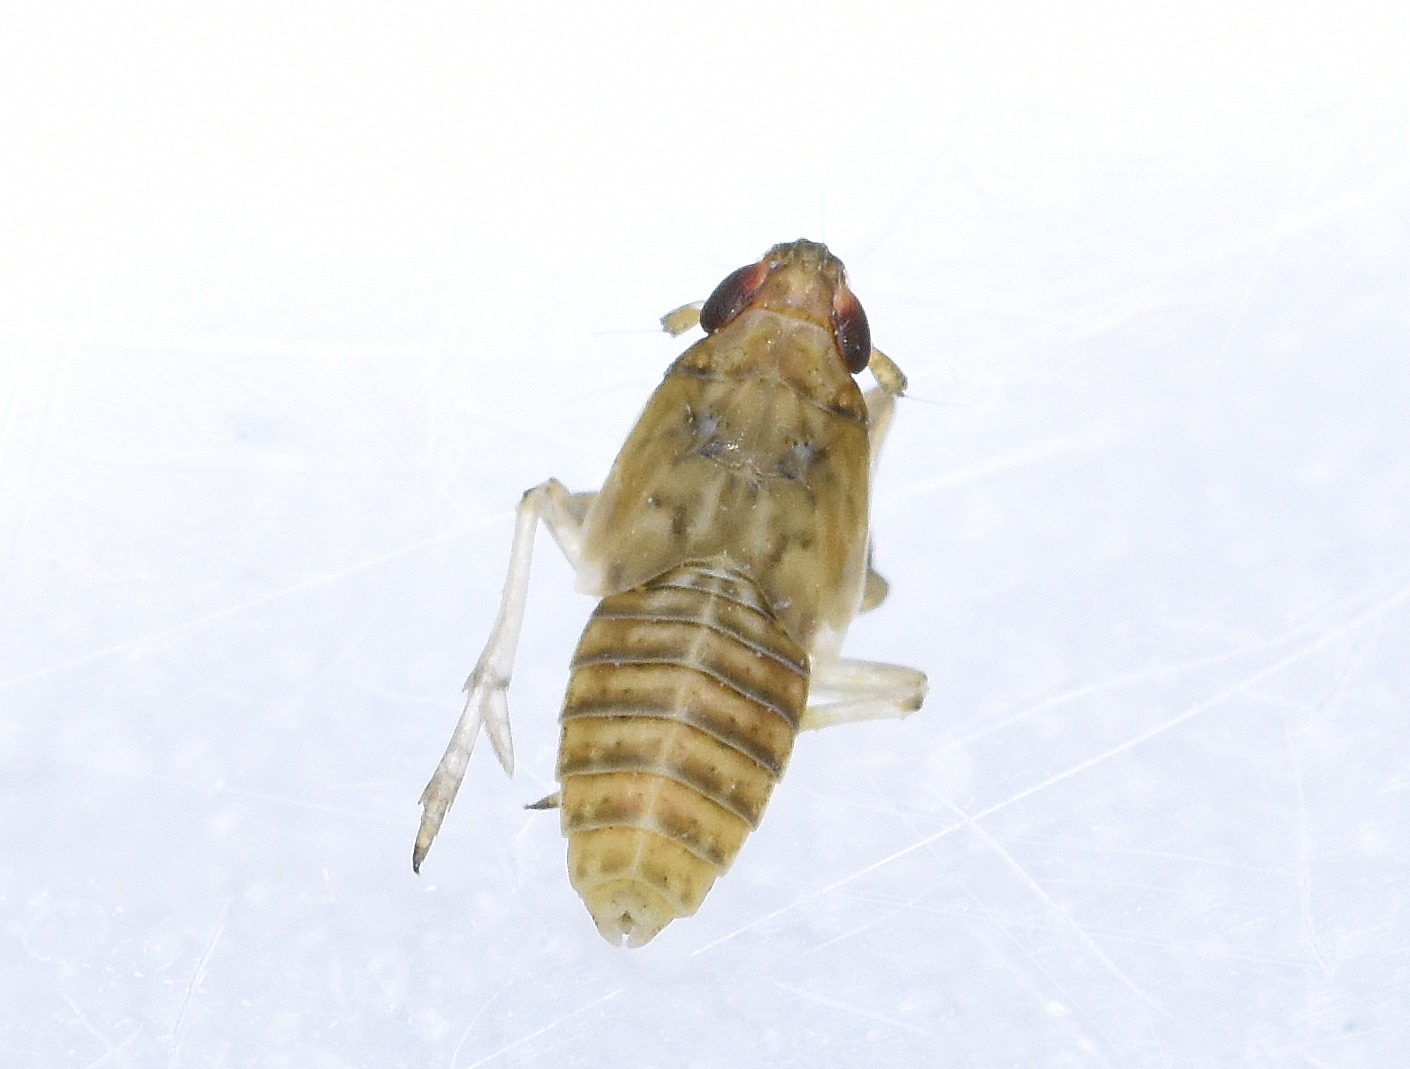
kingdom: Animalia
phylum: Arthropoda
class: Insecta
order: Hemiptera
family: Delphacidae
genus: Chloriona
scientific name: Chloriona
